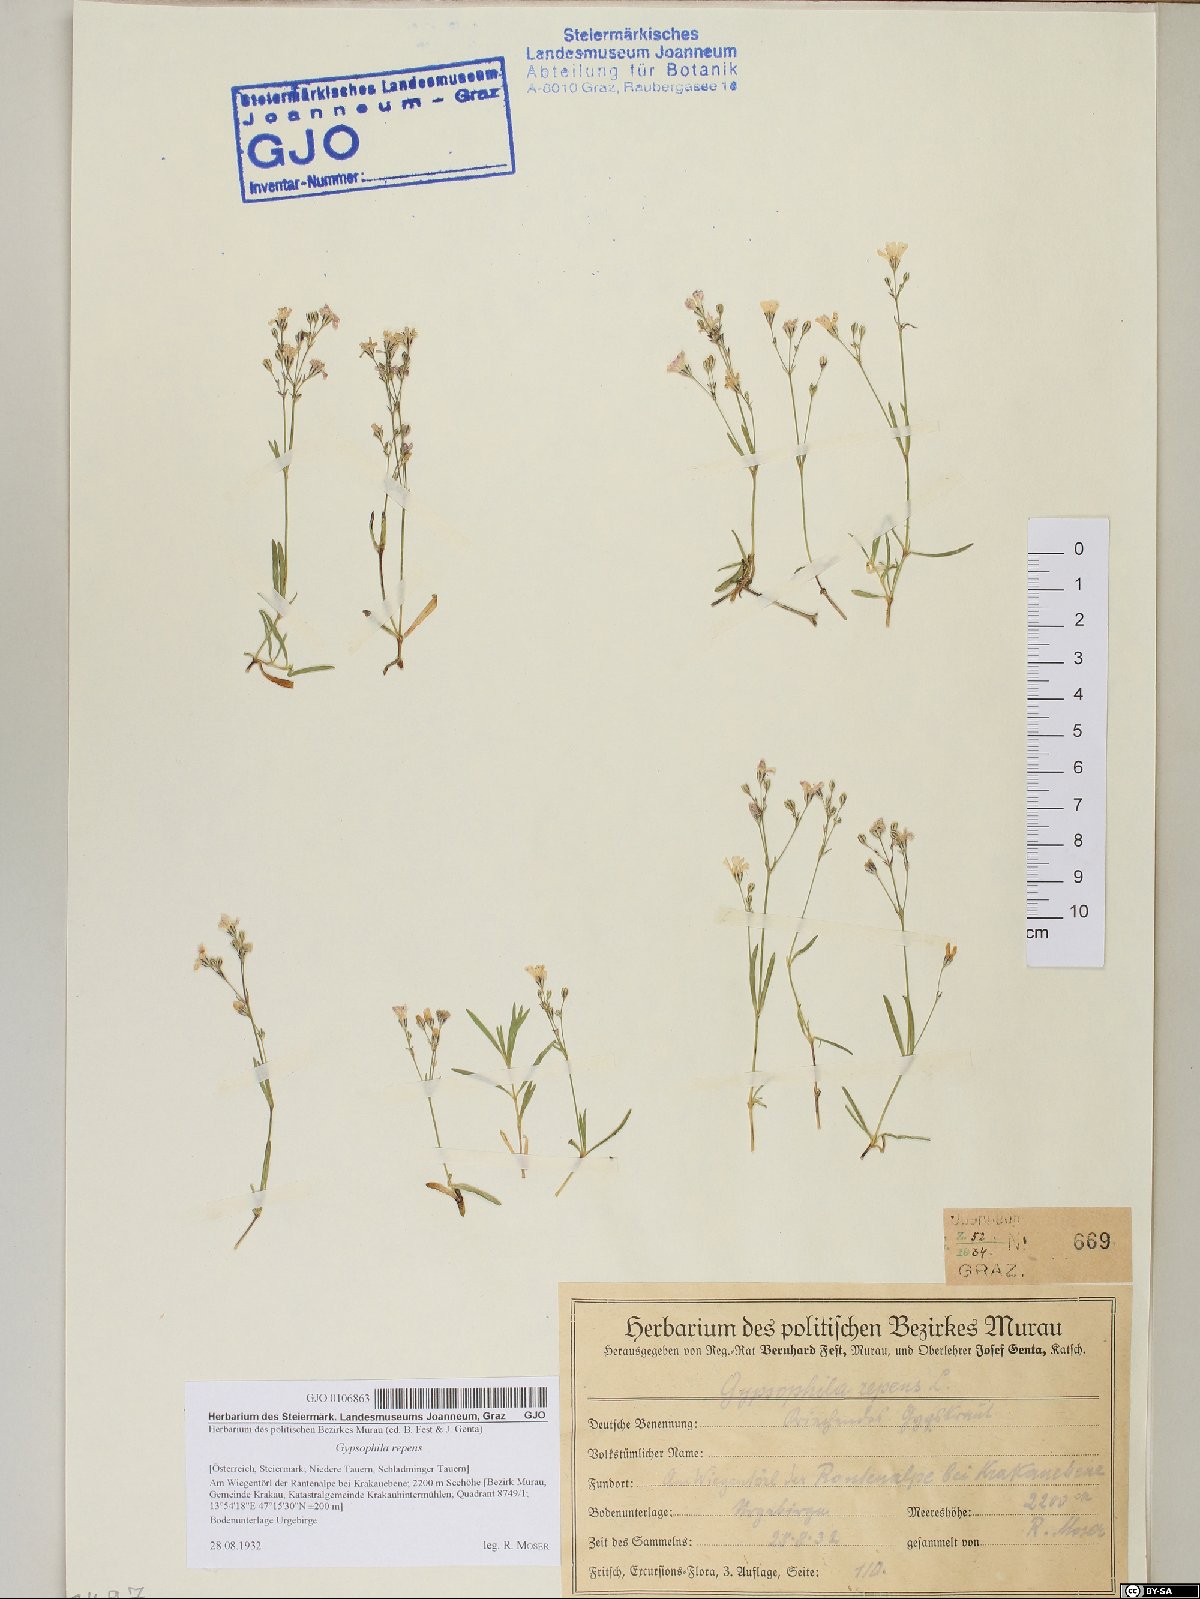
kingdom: Plantae
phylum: Tracheophyta
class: Magnoliopsida
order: Caryophyllales
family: Caryophyllaceae
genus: Gypsophila
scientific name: Gypsophila repens
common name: Creeping baby's-breath
